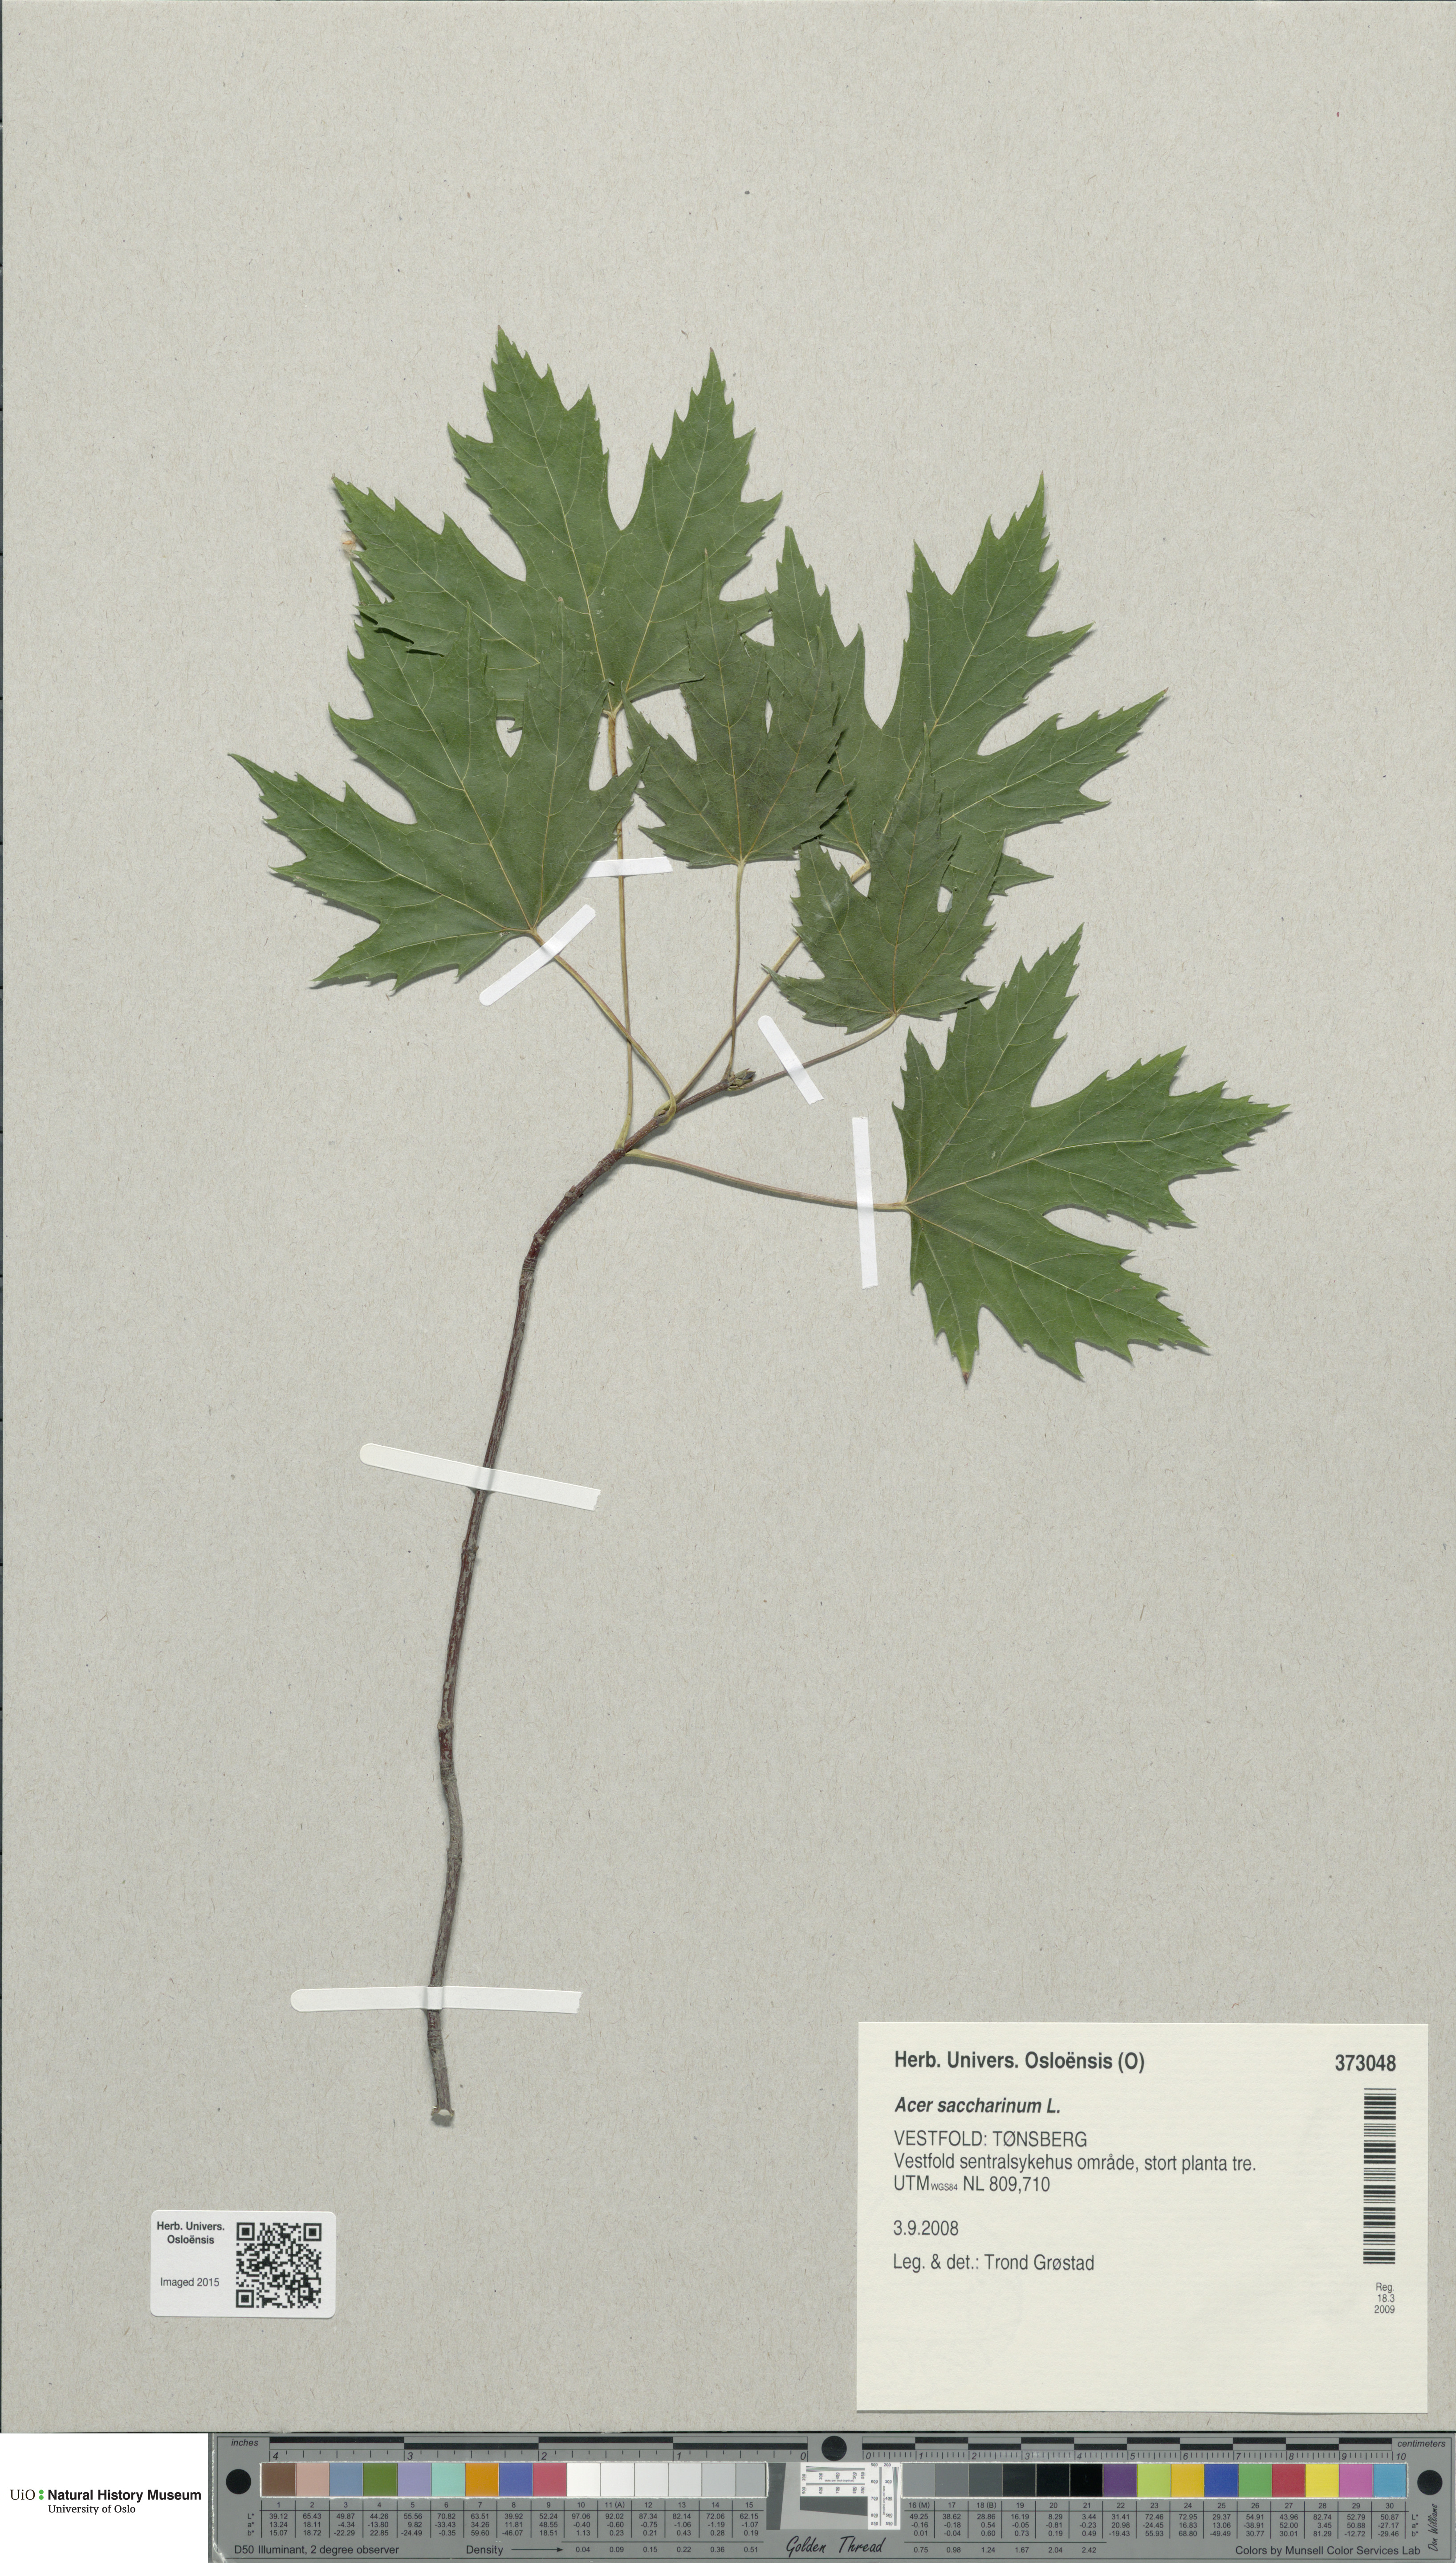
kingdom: Plantae
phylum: Tracheophyta
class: Magnoliopsida
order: Sapindales
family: Sapindaceae
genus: Acer
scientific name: Acer saccharinum
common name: Silver maple
